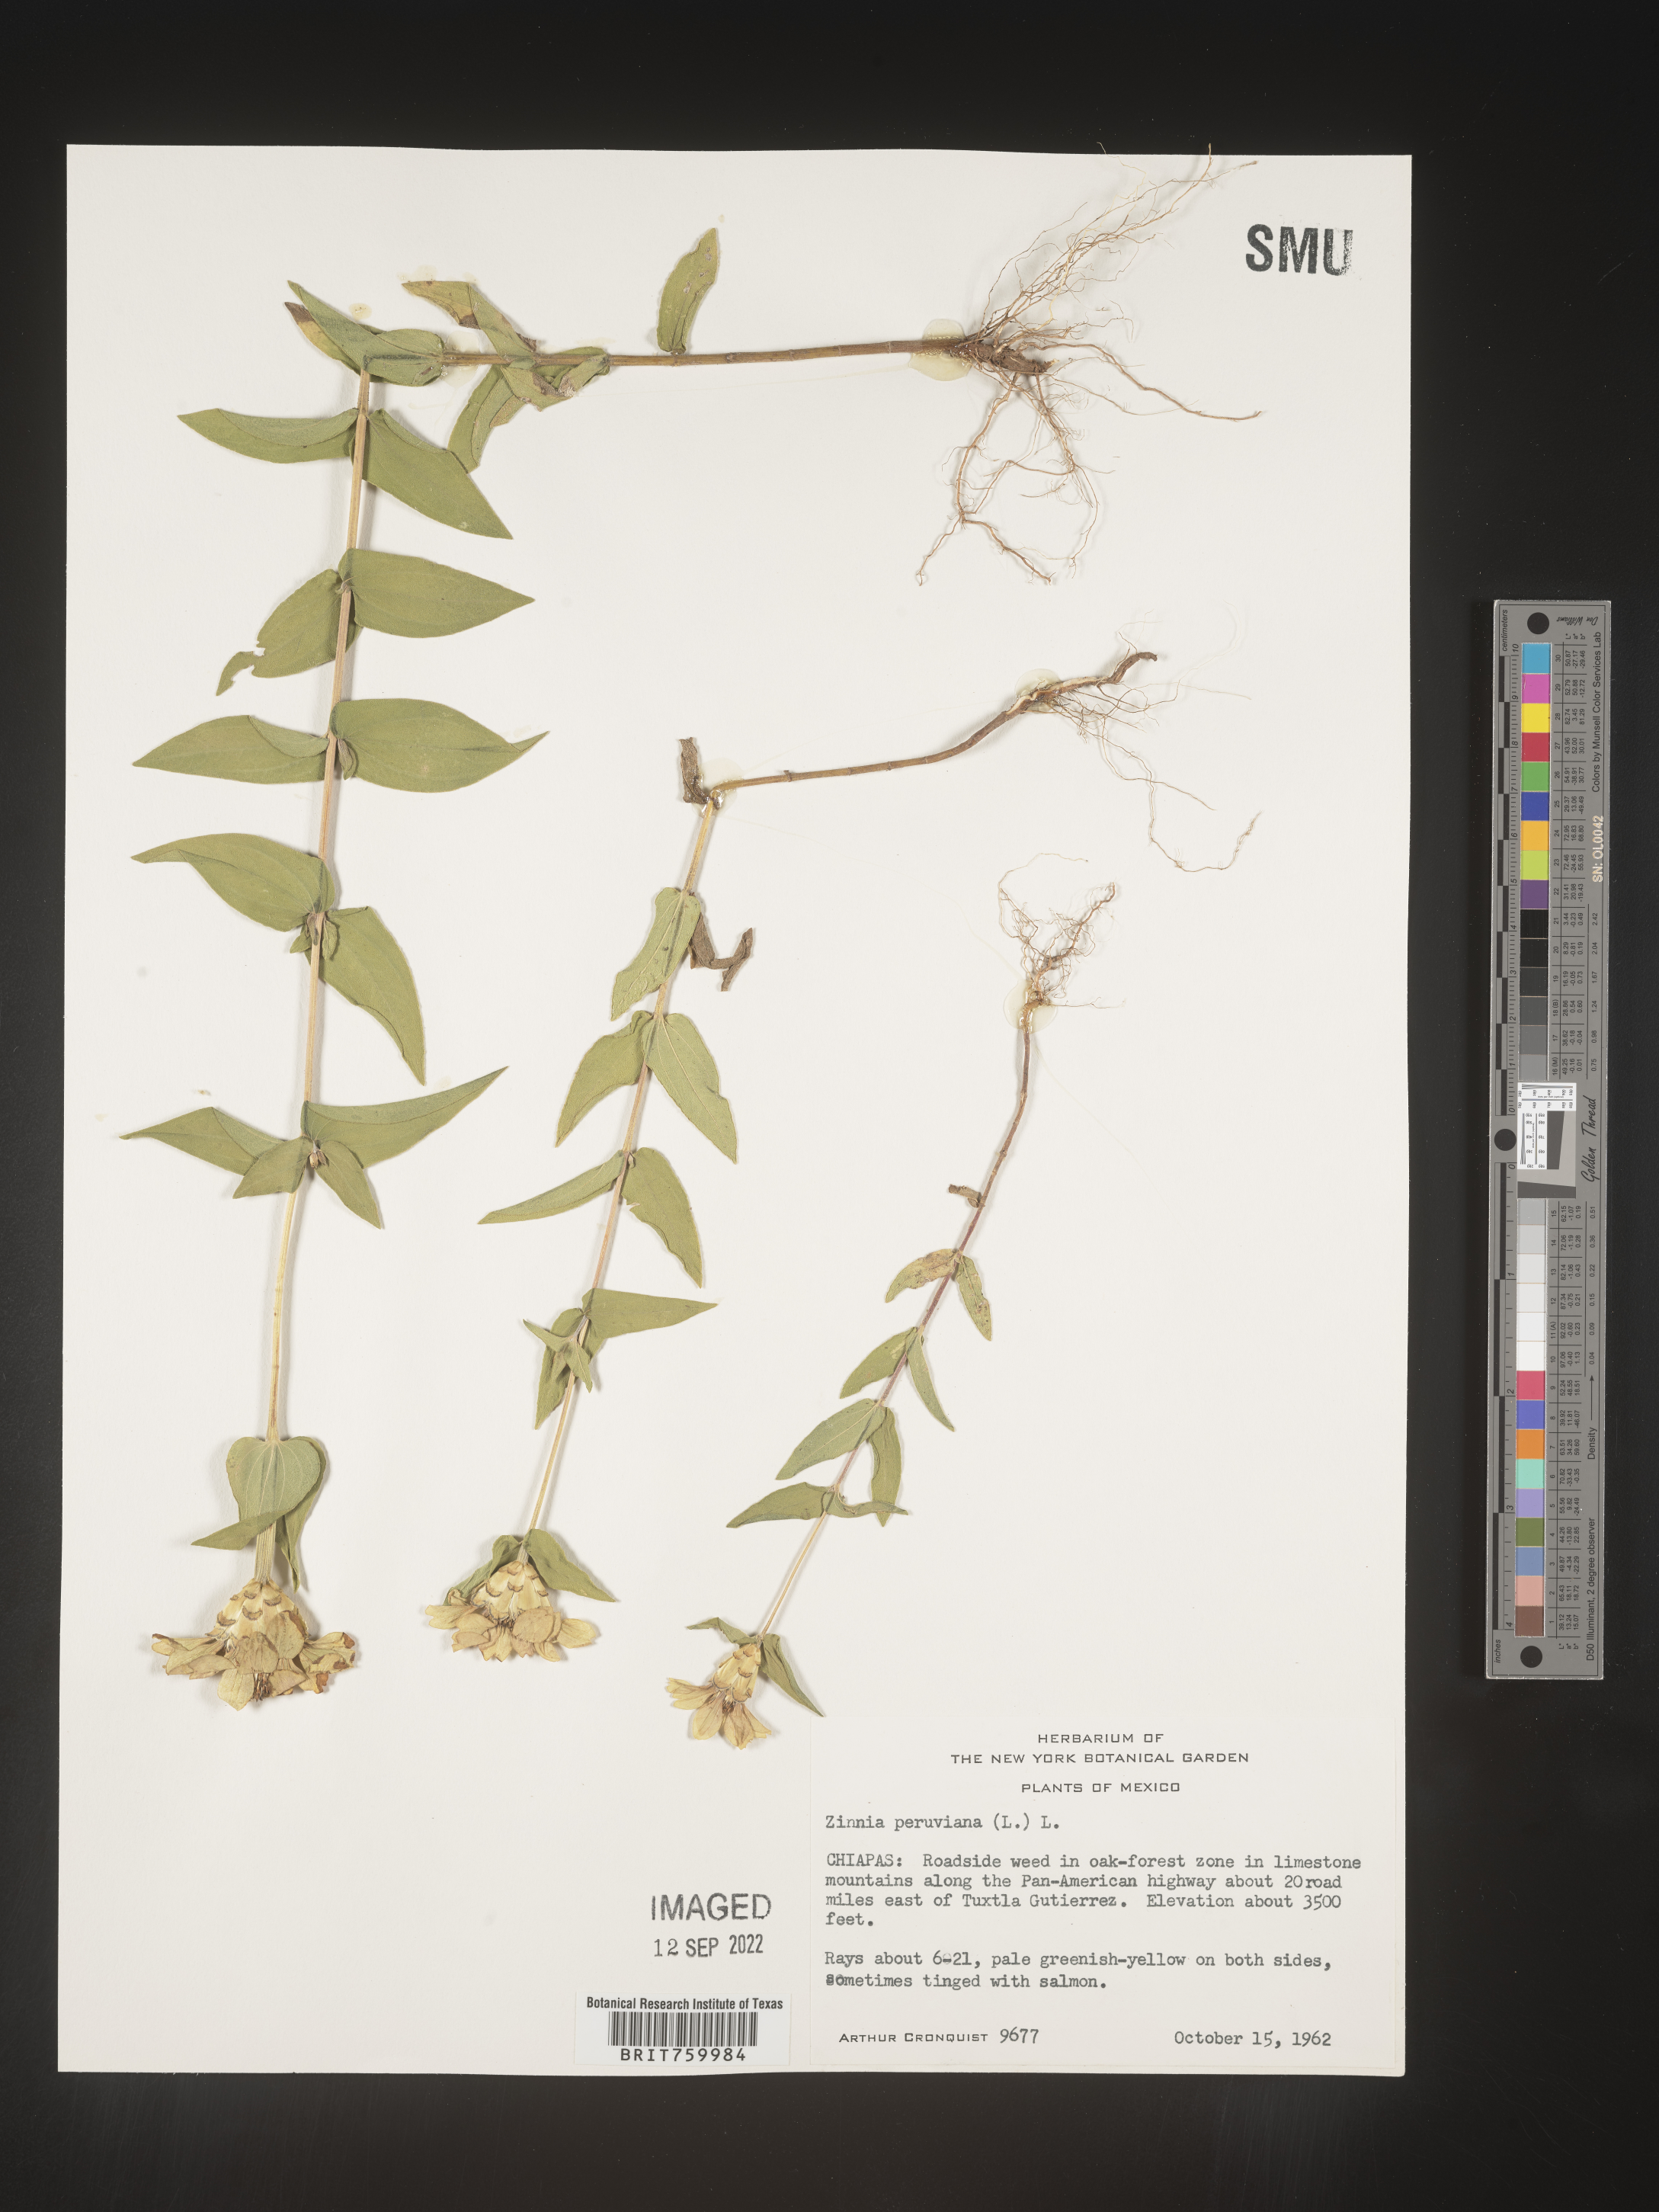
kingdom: Plantae
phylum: Tracheophyta
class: Magnoliopsida
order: Asterales
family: Asteraceae
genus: Zinnia
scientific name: Zinnia
